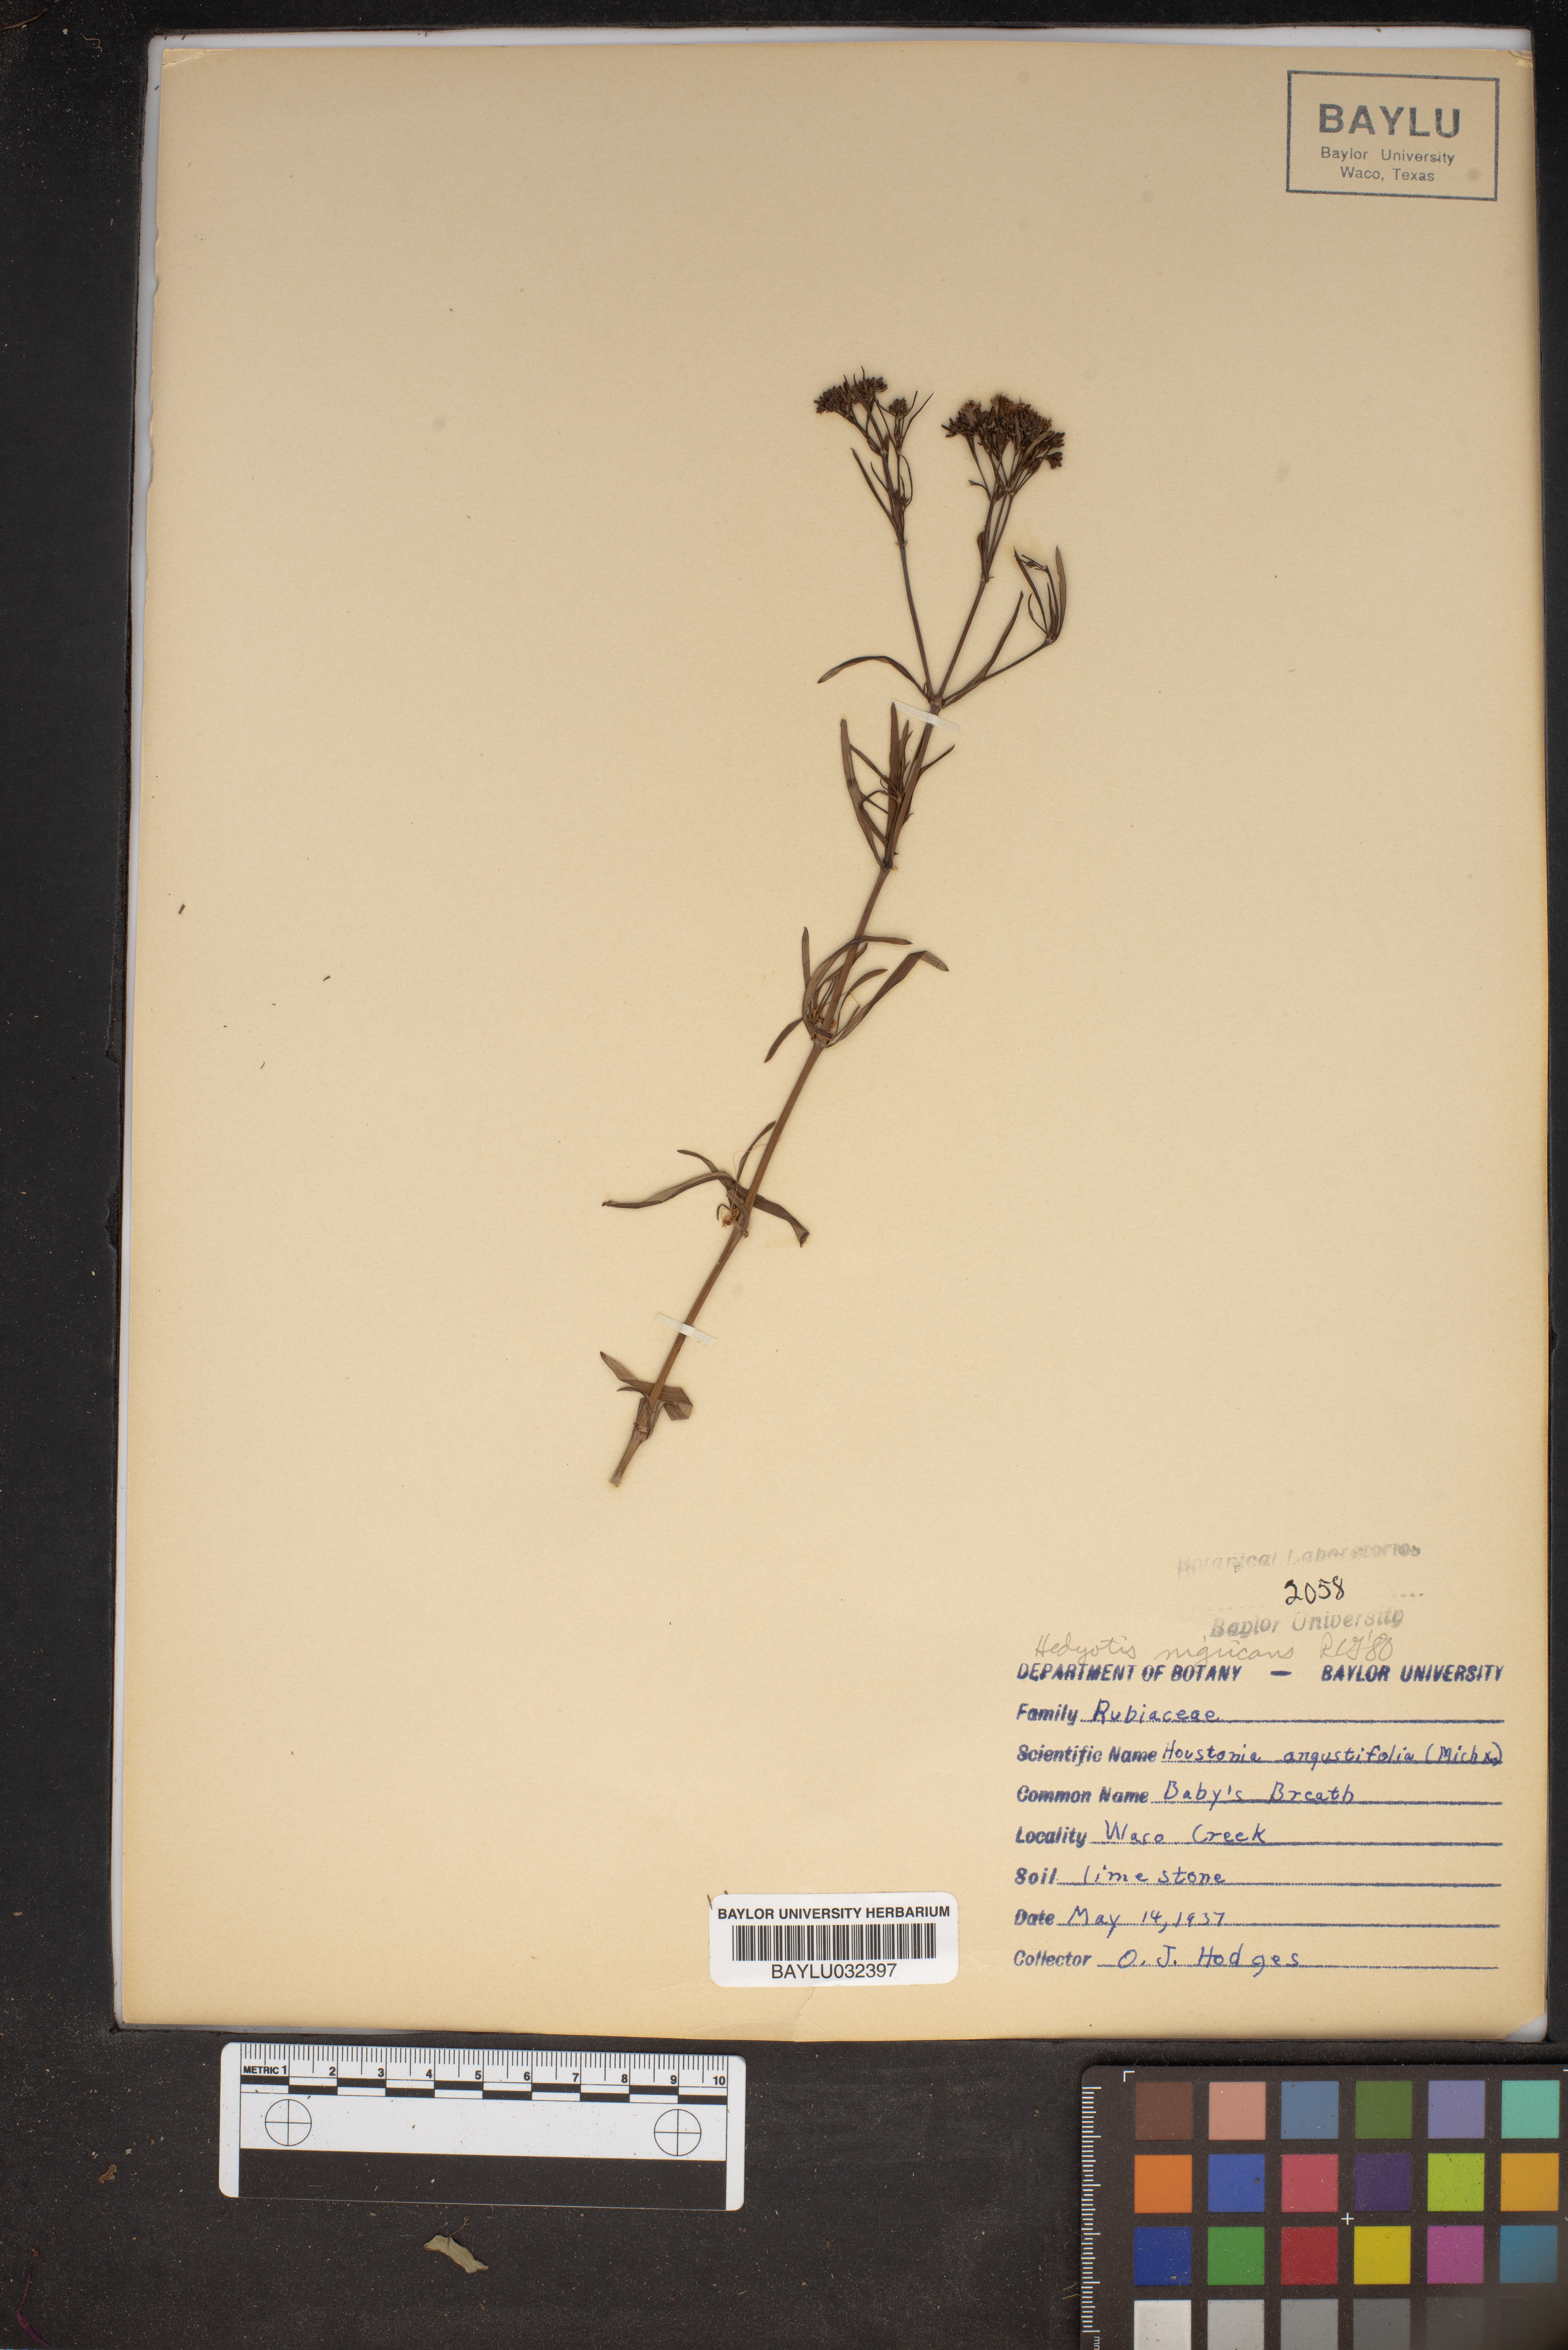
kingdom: Plantae
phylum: Tracheophyta
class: Magnoliopsida
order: Gentianales
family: Rubiaceae
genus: Stenaria
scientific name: Stenaria nigricans
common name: Diamondflowers
